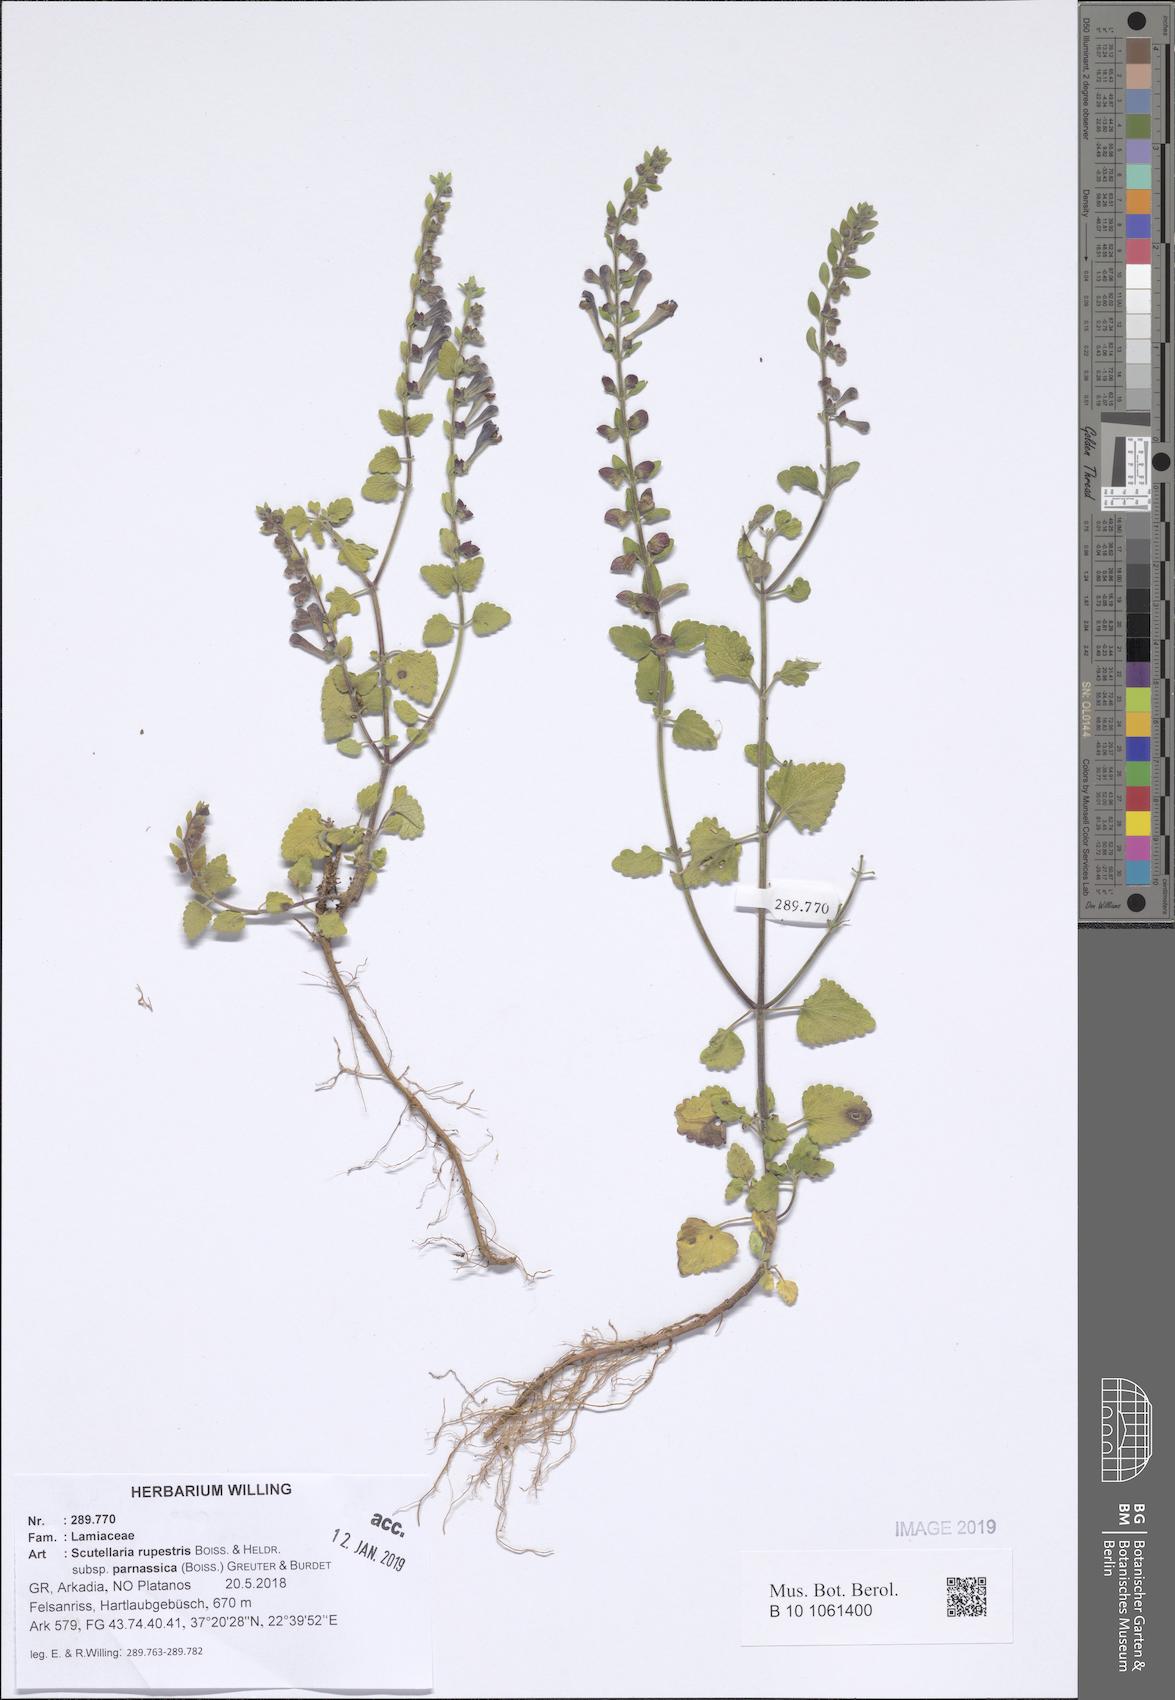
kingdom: Plantae
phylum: Tracheophyta
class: Magnoliopsida
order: Lamiales
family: Lamiaceae
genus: Scutellaria
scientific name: Scutellaria rupestris
